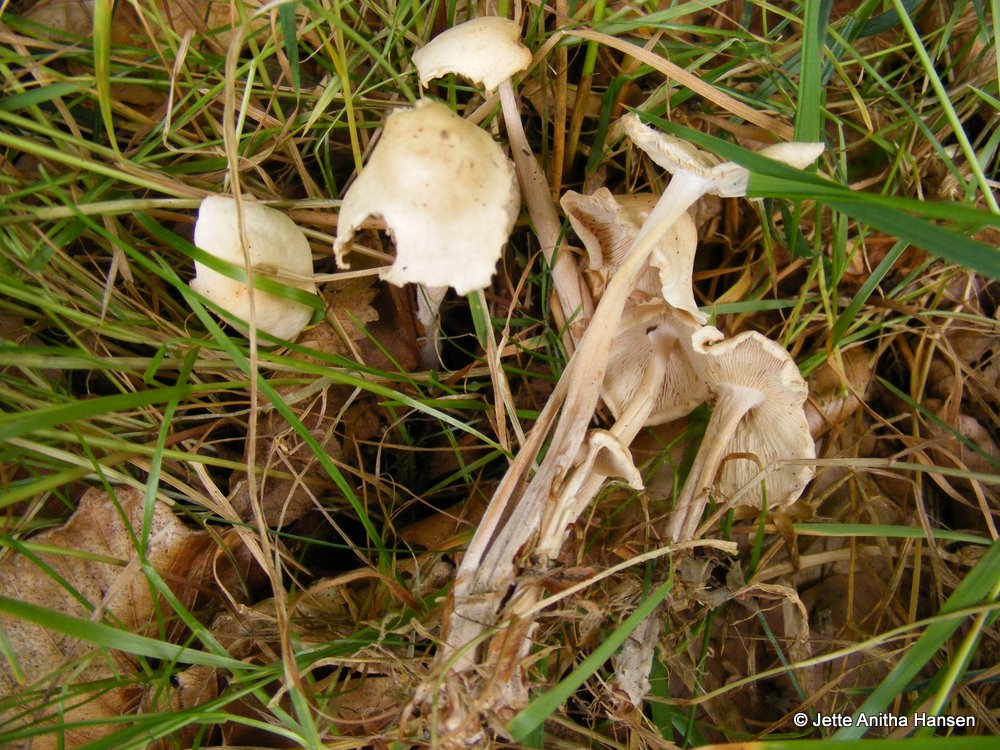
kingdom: Fungi
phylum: Basidiomycota
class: Agaricomycetes
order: Agaricales
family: Omphalotaceae
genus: Collybiopsis
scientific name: Collybiopsis confluens
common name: knippe-fladhat
